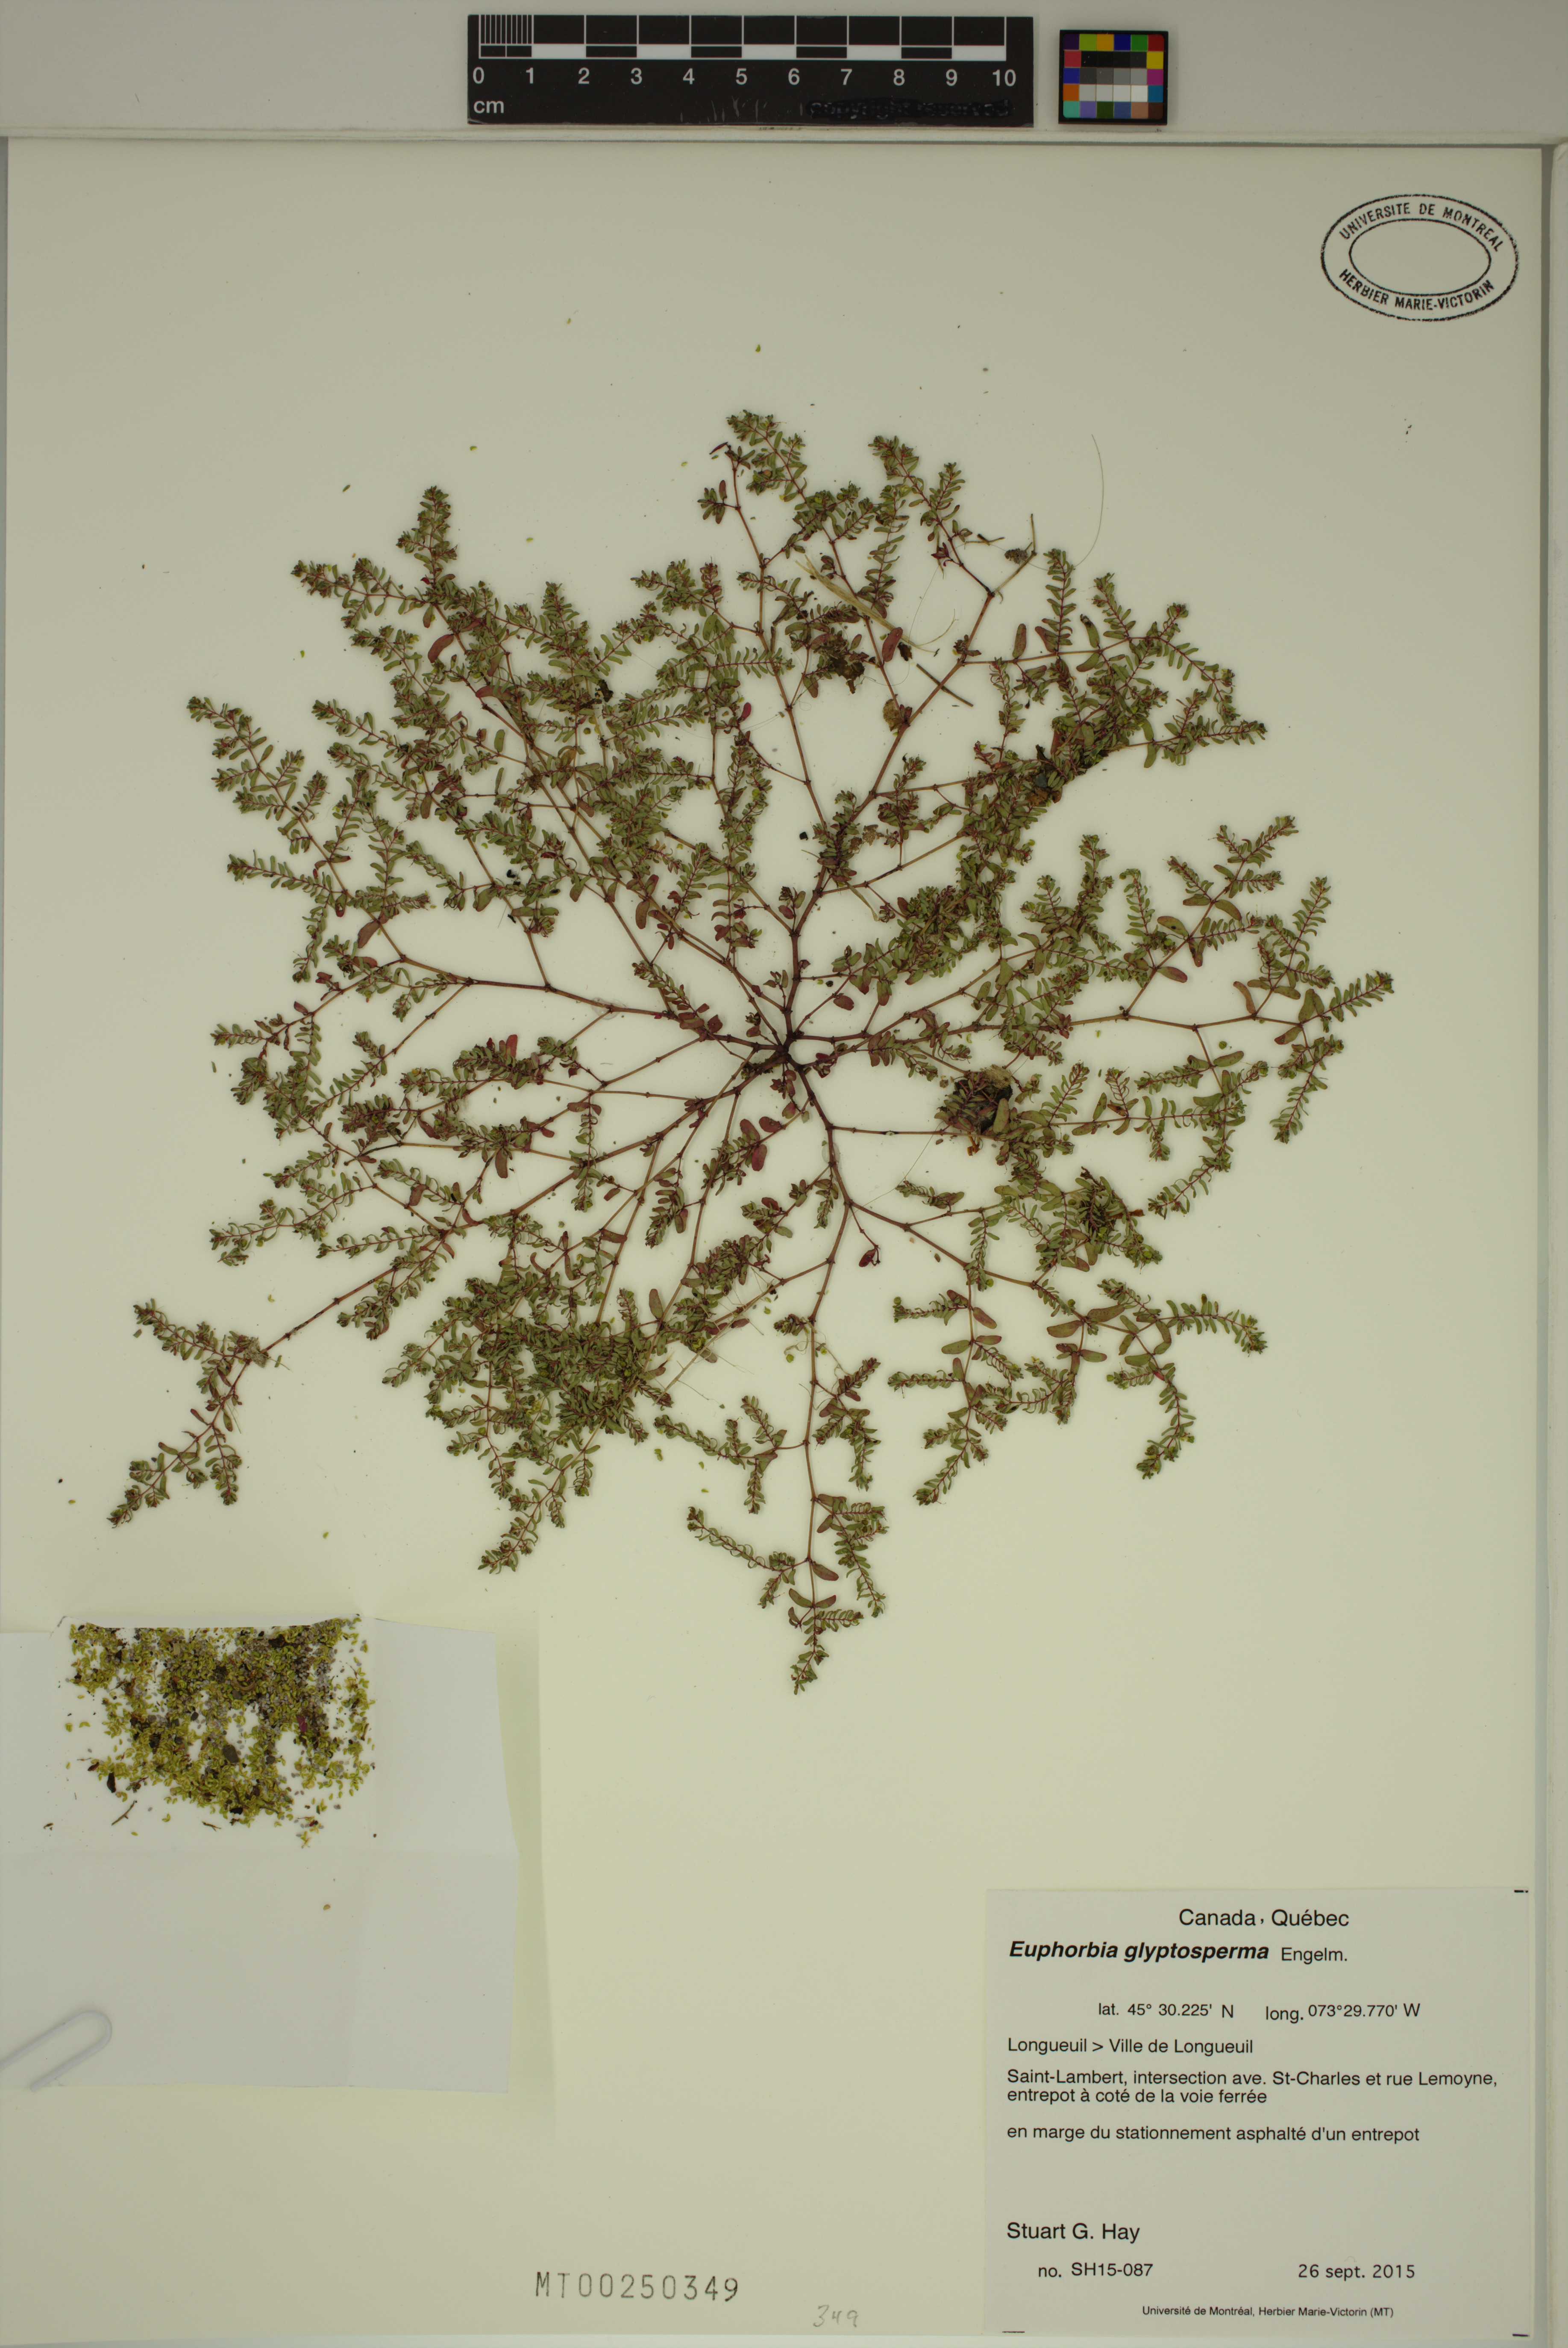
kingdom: Plantae
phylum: Tracheophyta
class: Magnoliopsida
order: Malpighiales
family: Euphorbiaceae
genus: Euphorbia
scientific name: Euphorbia glyptosperma
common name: Corrugate-seeded spurge
